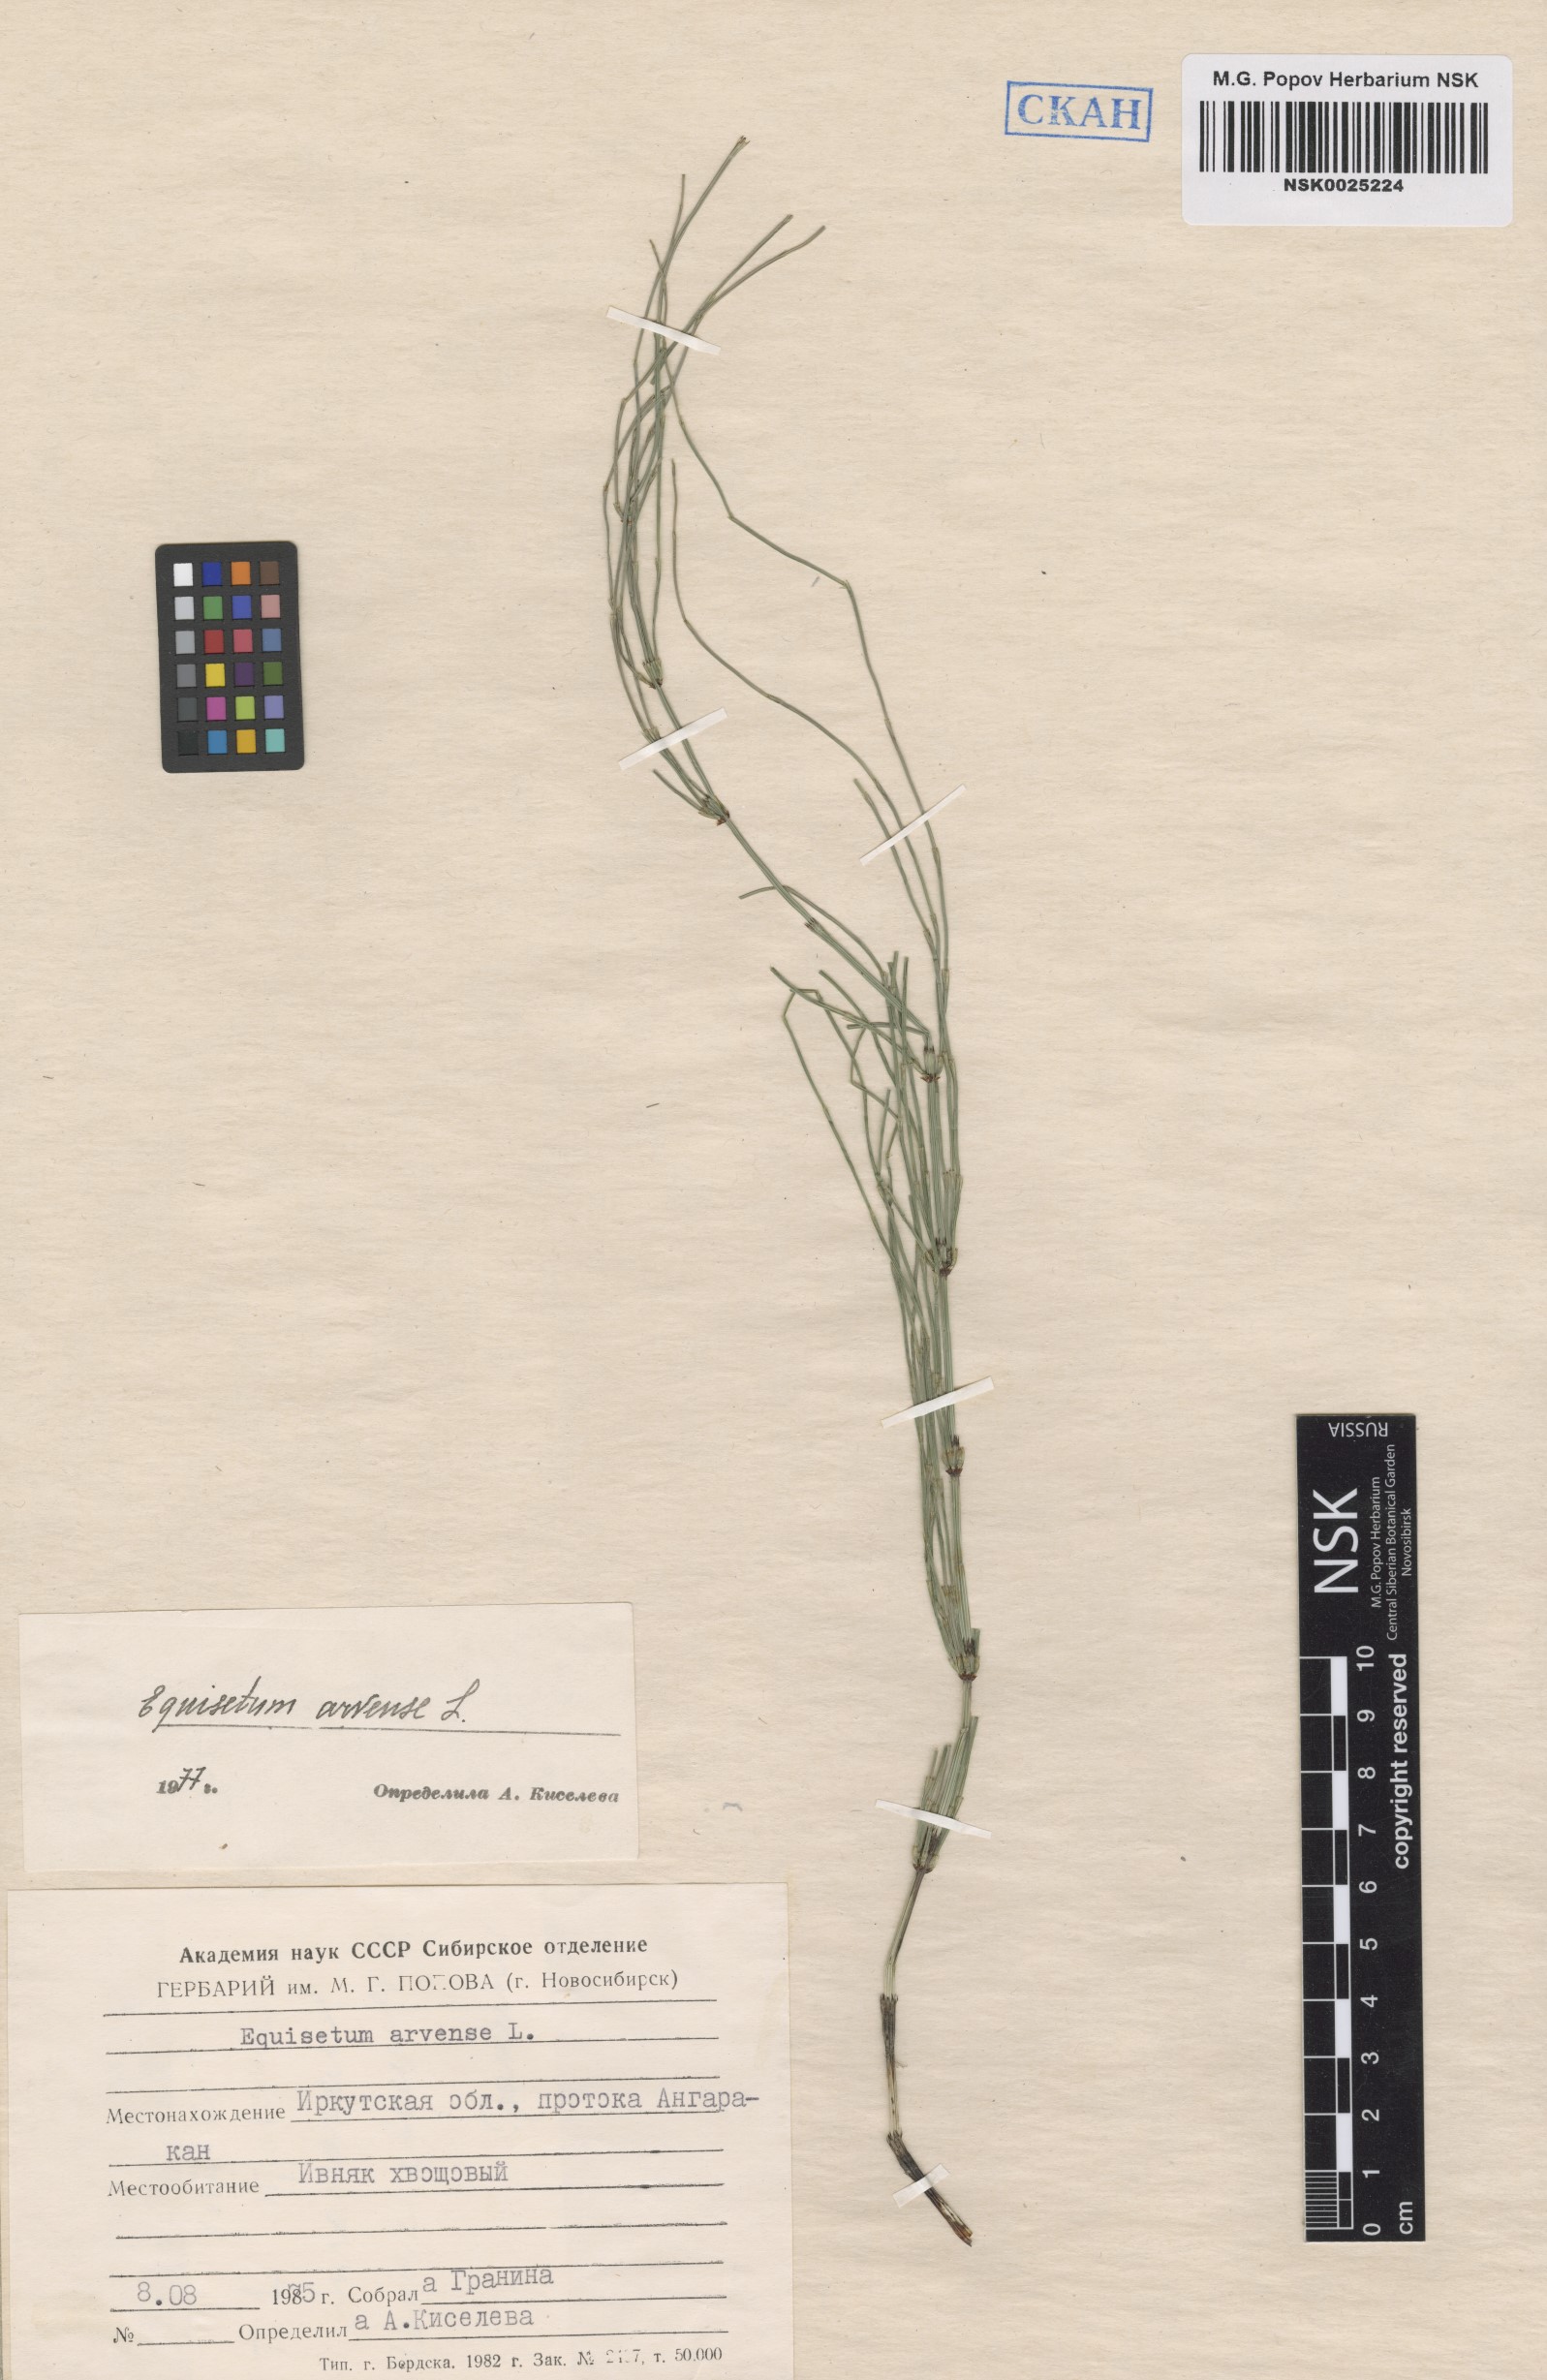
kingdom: Plantae
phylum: Tracheophyta
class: Polypodiopsida
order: Equisetales
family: Equisetaceae
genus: Equisetum
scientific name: Equisetum arvense
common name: Field horsetail
